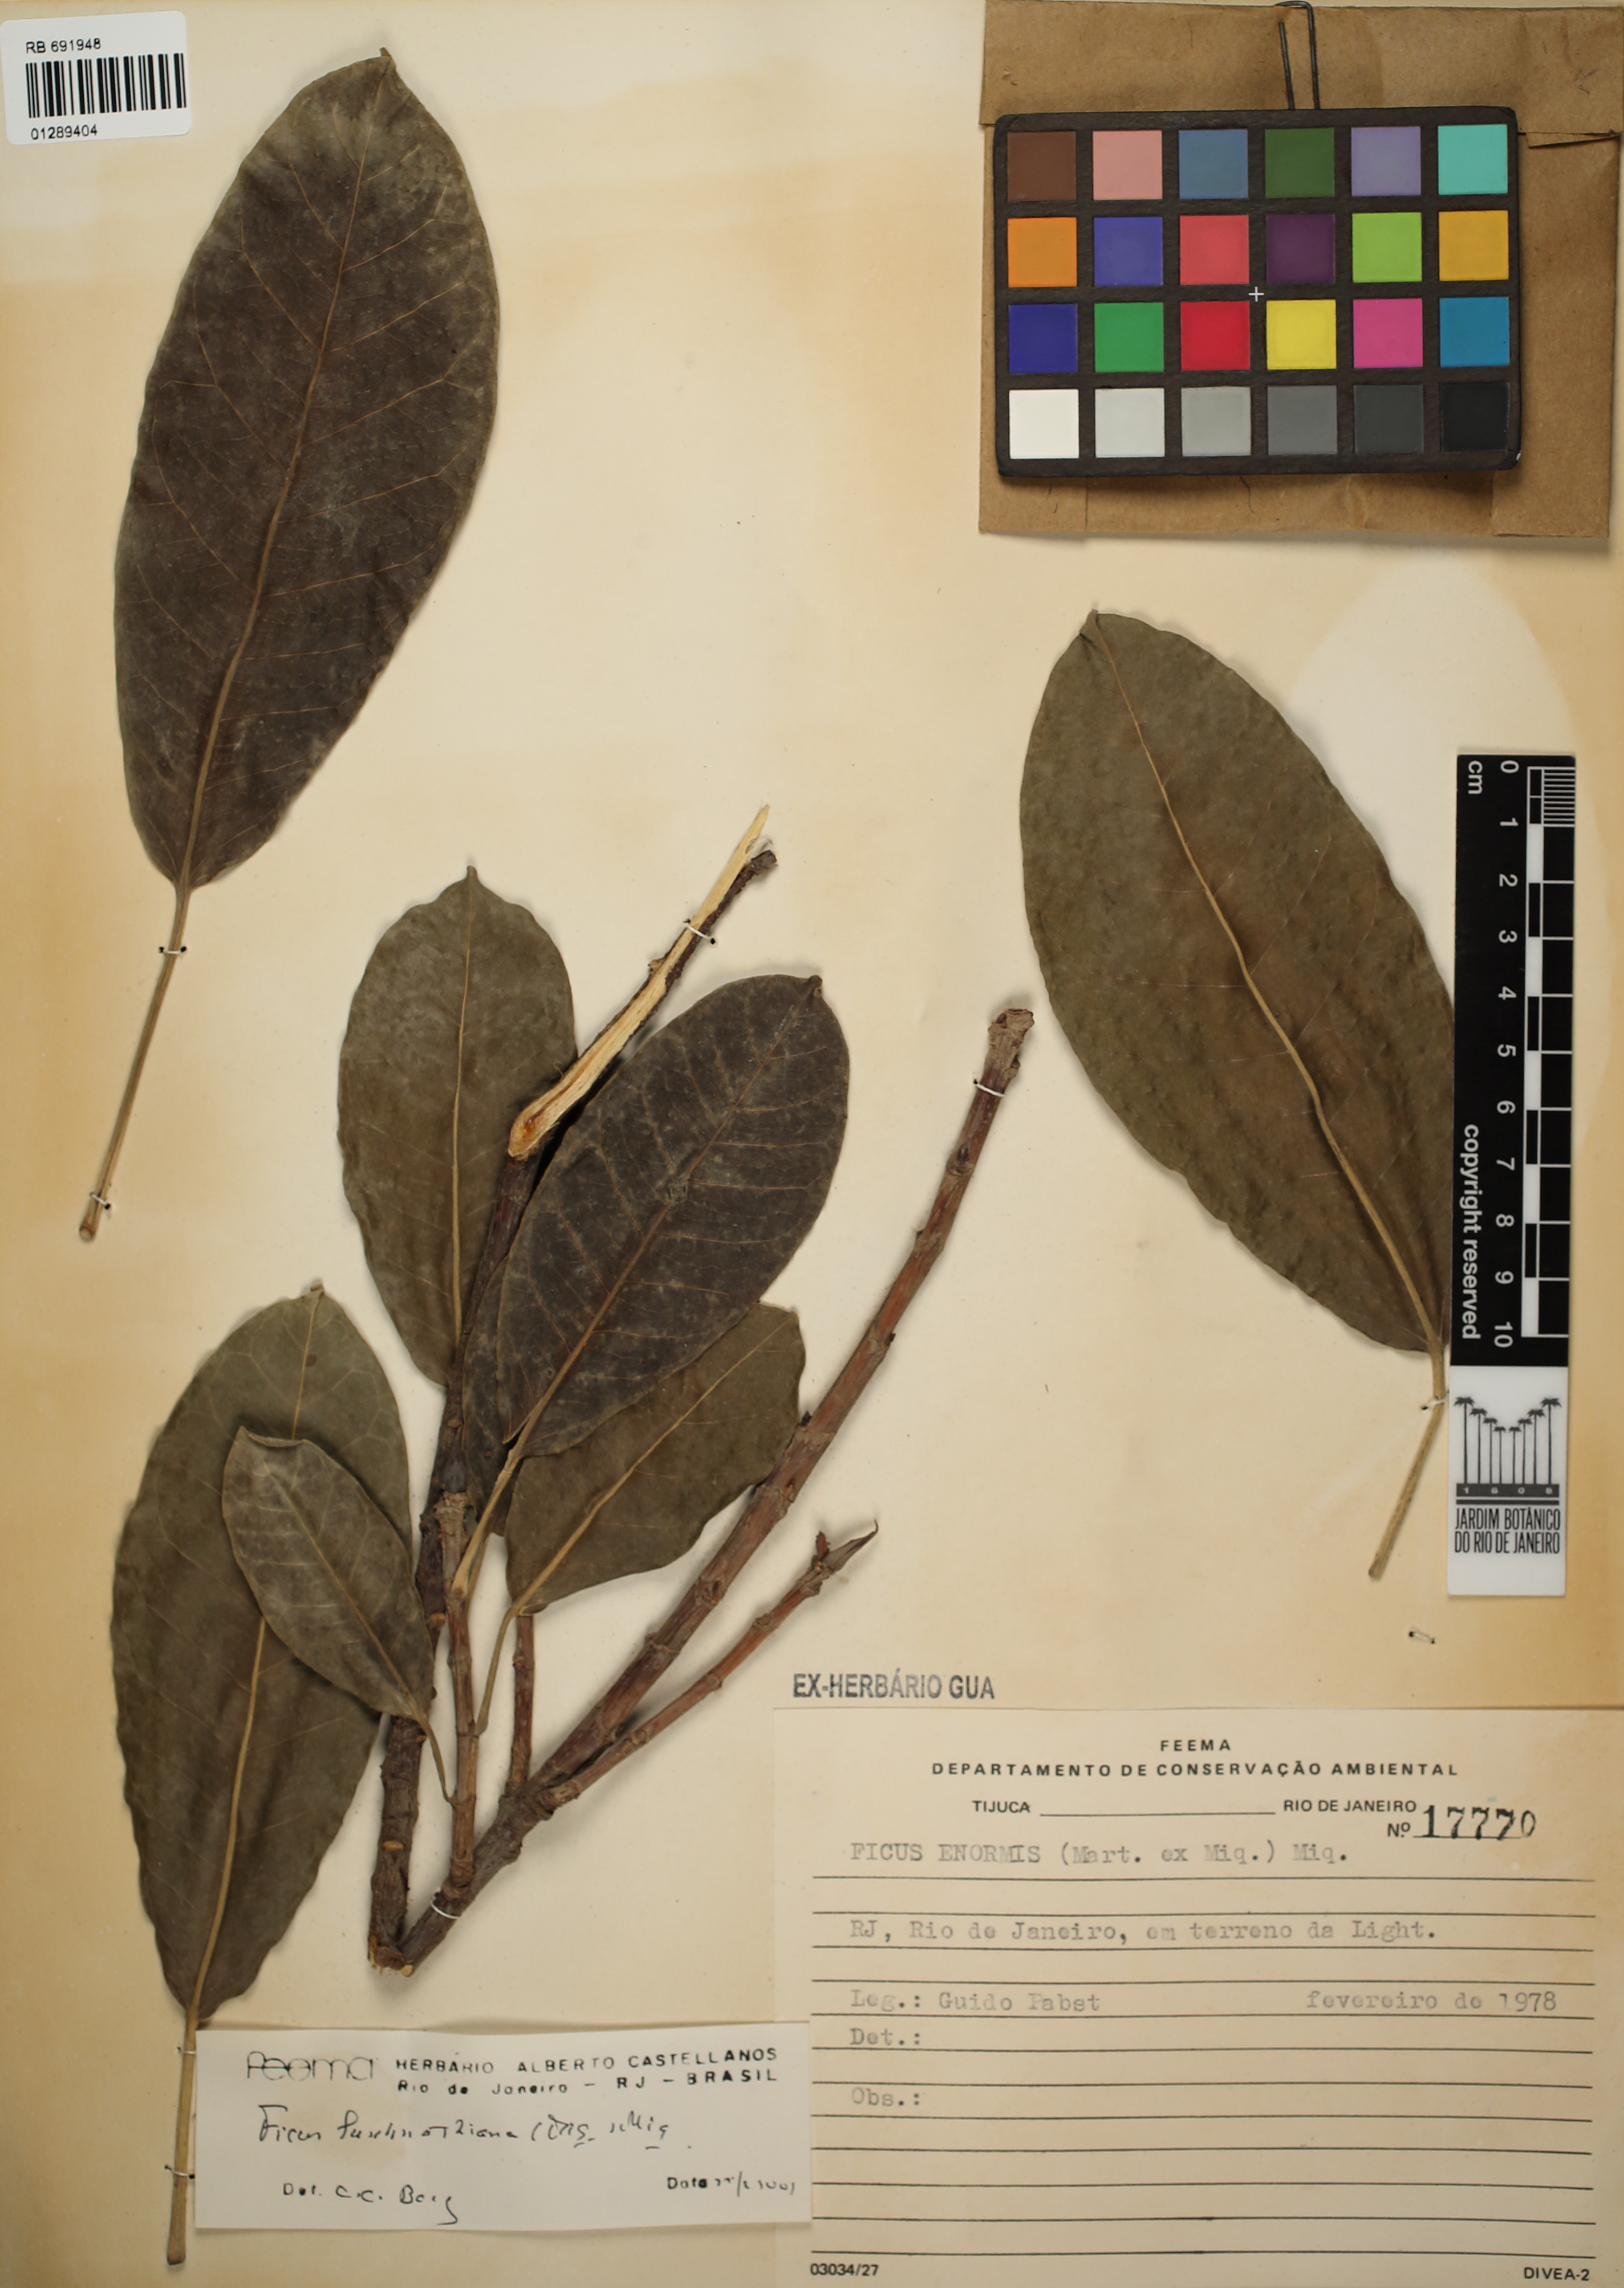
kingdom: Plantae
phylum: Tracheophyta
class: Magnoliopsida
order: Rosales
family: Moraceae
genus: Ficus
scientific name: Ficus luschnathiana
